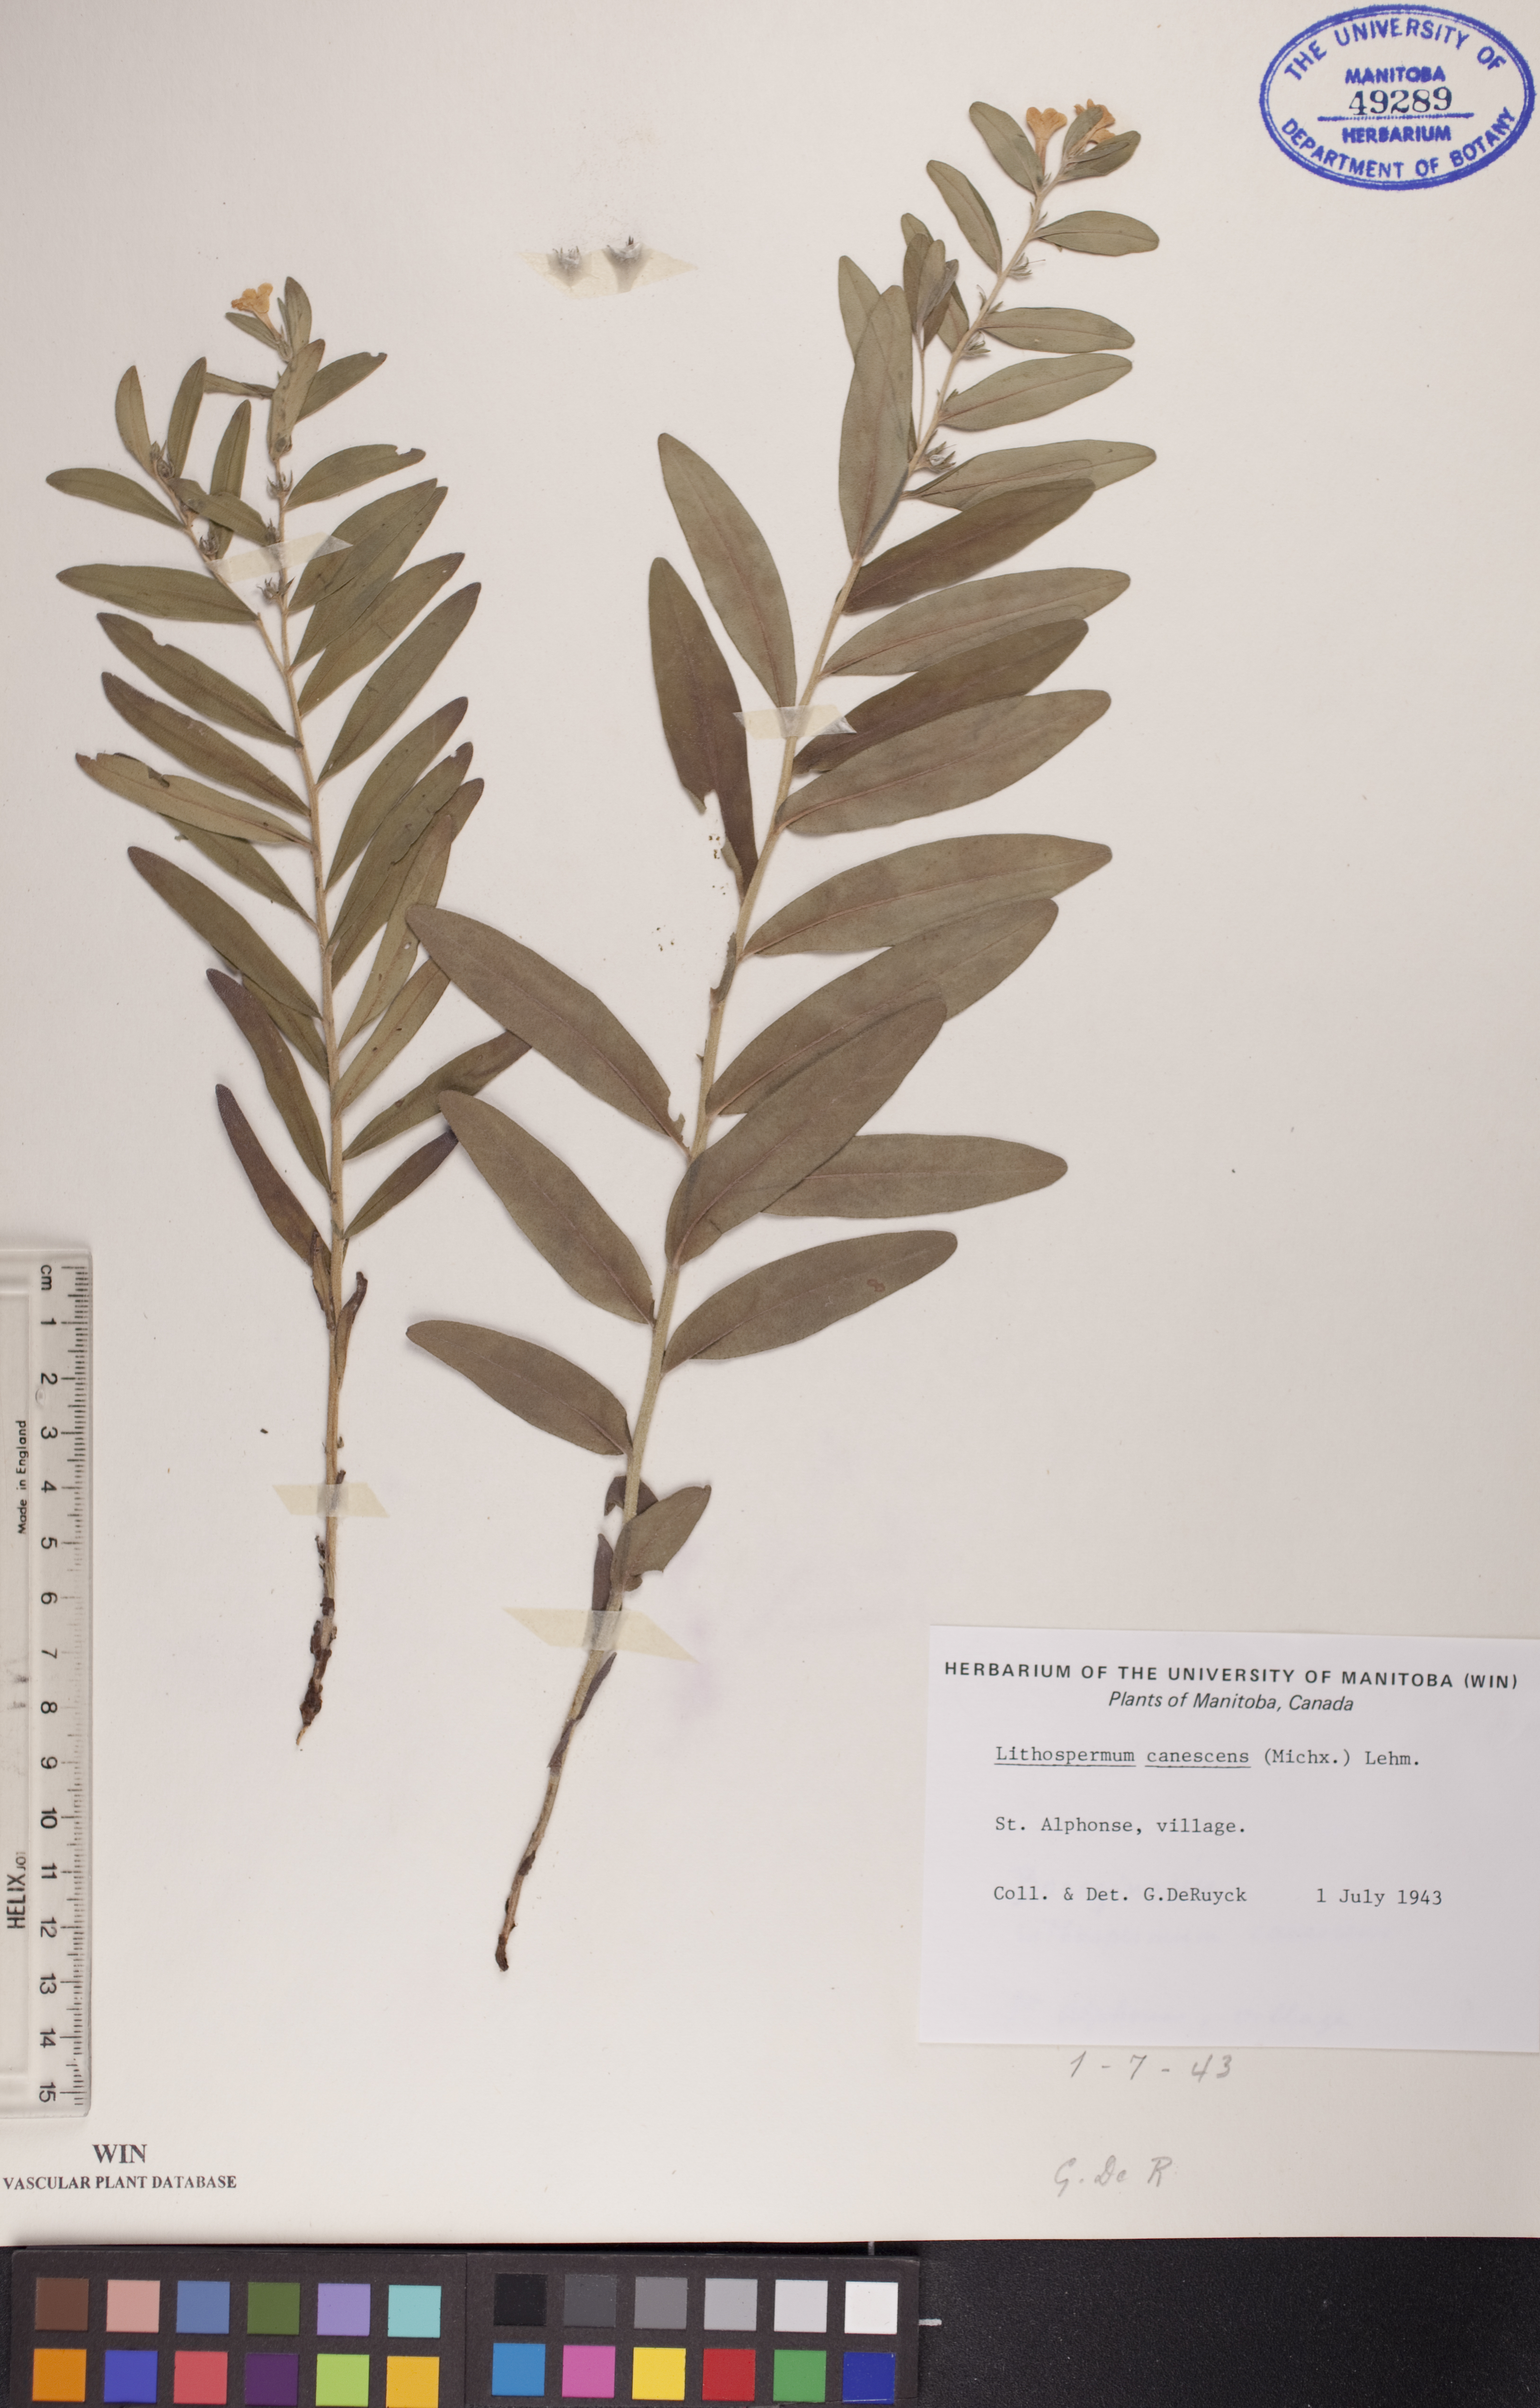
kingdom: Plantae
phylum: Tracheophyta
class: Magnoliopsida
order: Boraginales
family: Boraginaceae
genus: Lithospermum
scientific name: Lithospermum canescens
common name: Hoary puccoon
